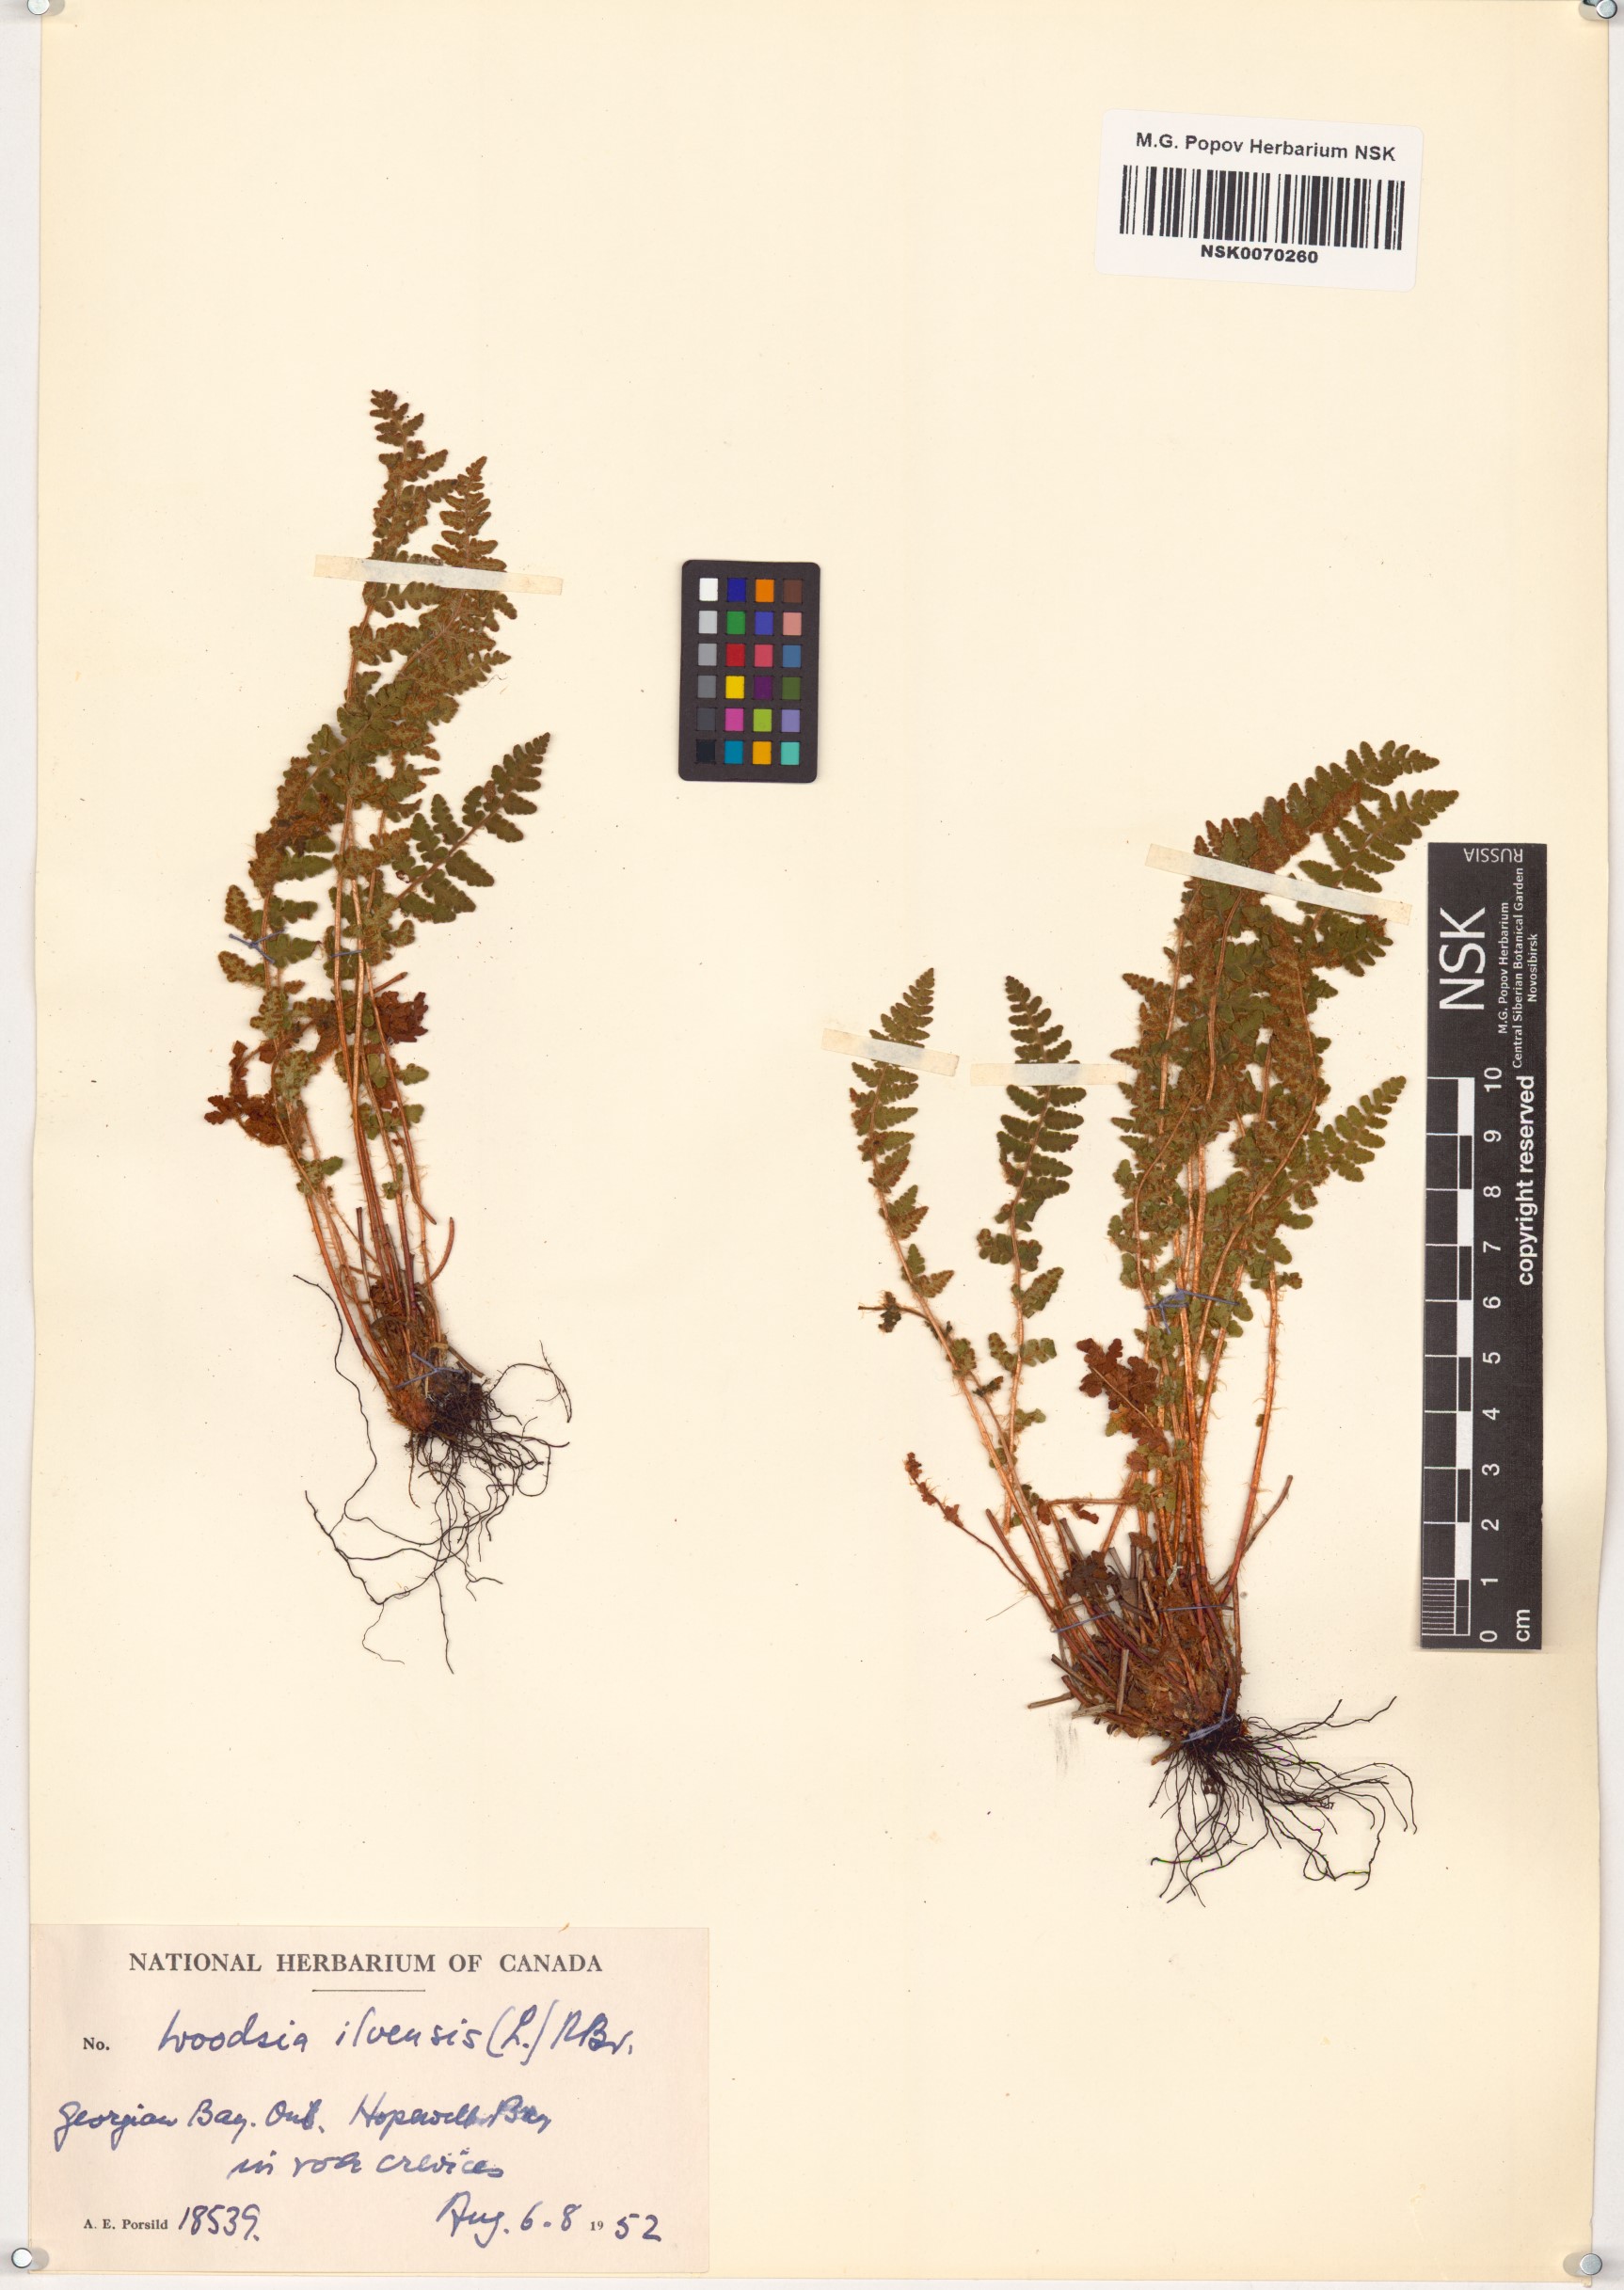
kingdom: Plantae
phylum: Tracheophyta
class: Polypodiopsida
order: Polypodiales
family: Woodsiaceae
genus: Woodsia
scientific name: Woodsia ilvensis
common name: Fragrant woodsia
